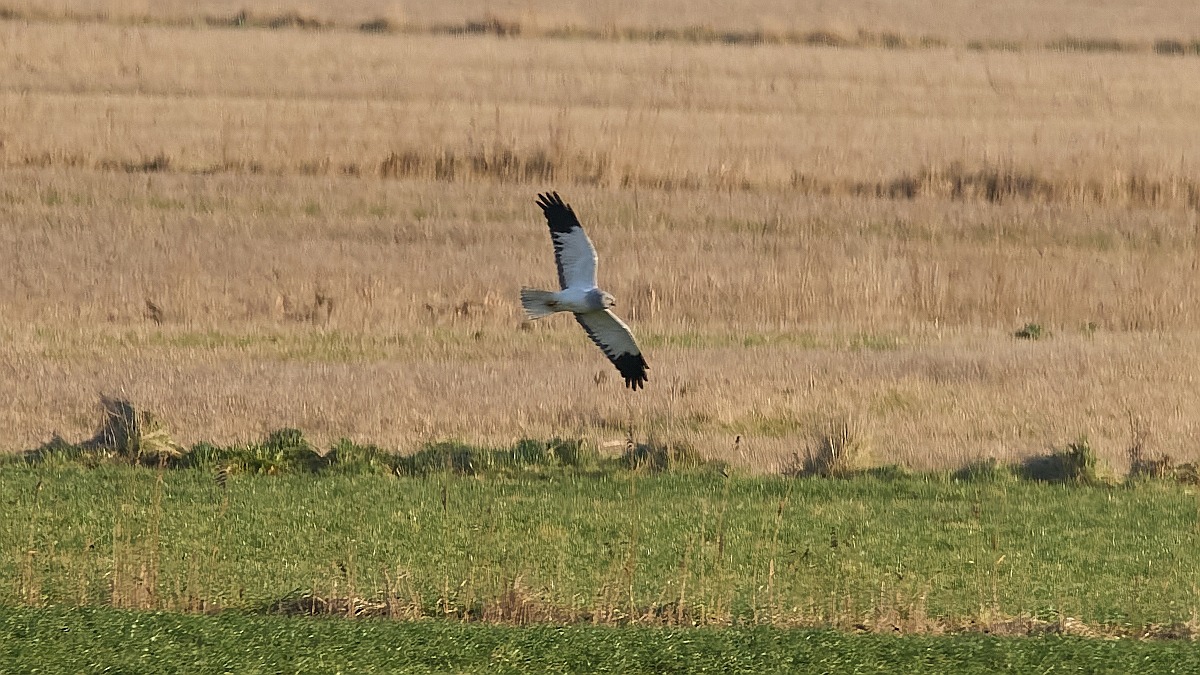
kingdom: Animalia
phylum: Chordata
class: Aves
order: Accipitriformes
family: Accipitridae
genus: Circus
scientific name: Circus cyaneus
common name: Blå kærhøg
